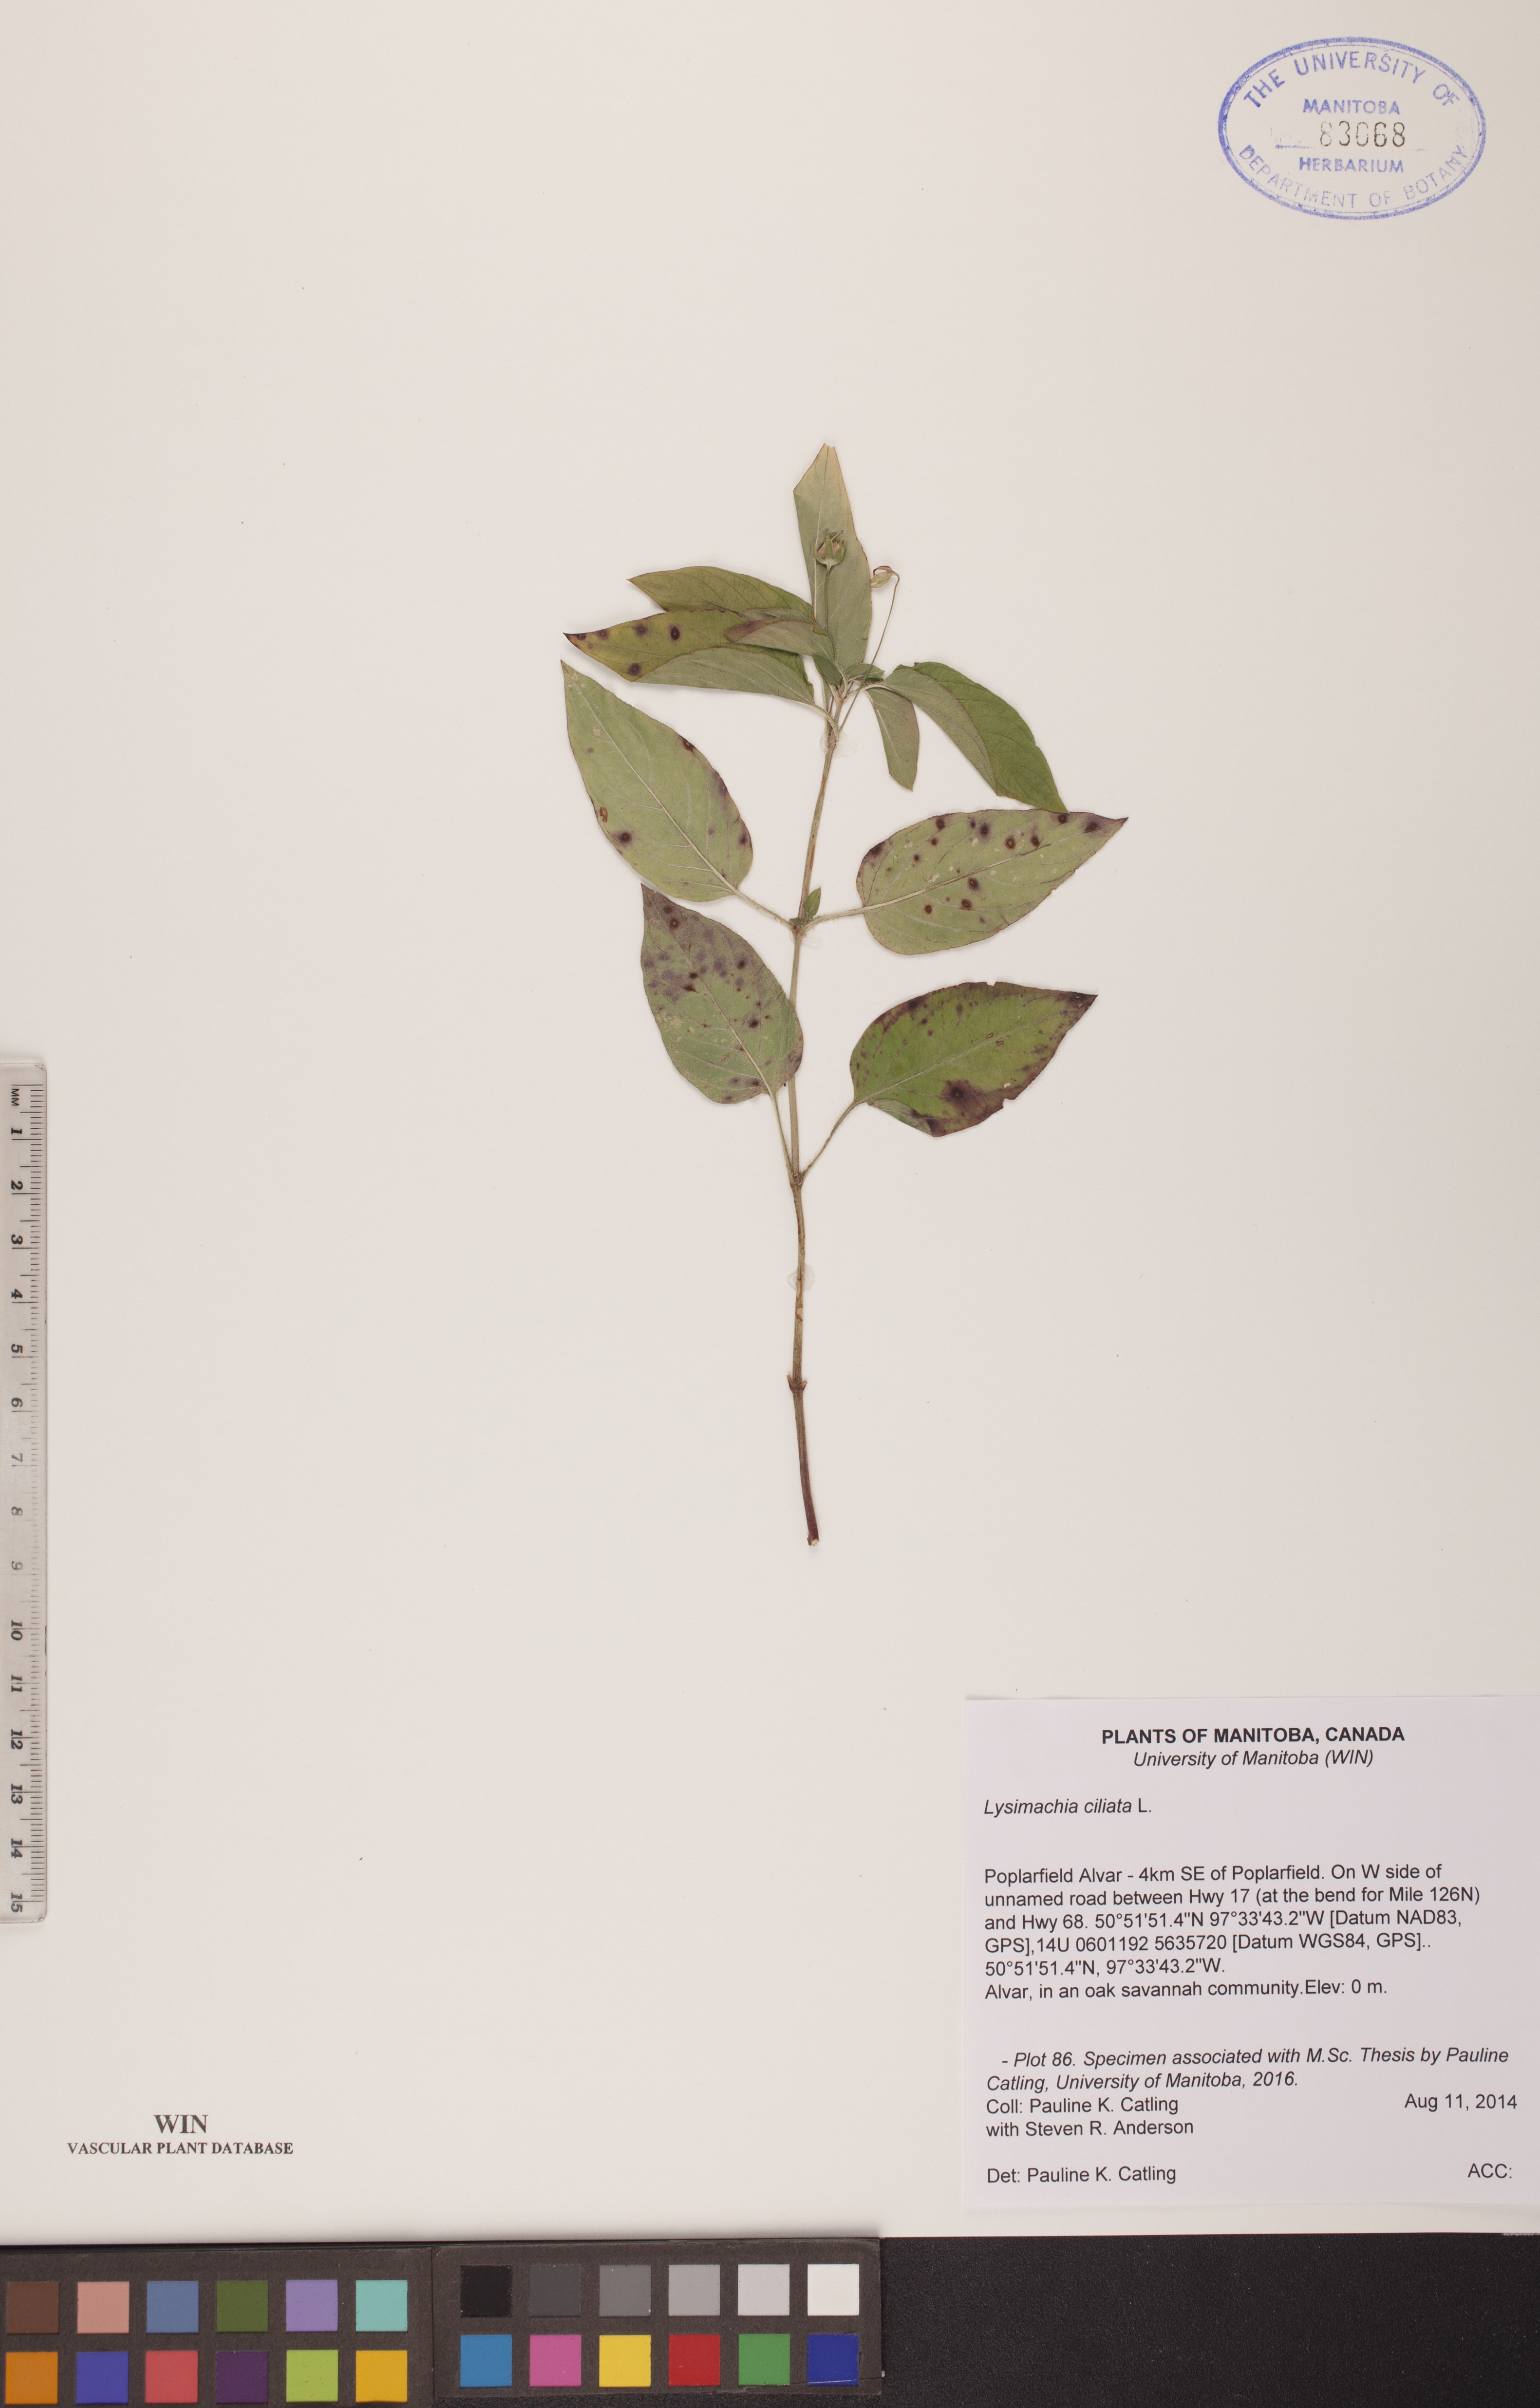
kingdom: Plantae
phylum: Tracheophyta
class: Magnoliopsida
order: Ericales
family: Primulaceae
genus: Lysimachia
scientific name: Lysimachia ciliata
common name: Fringed loosestrife
